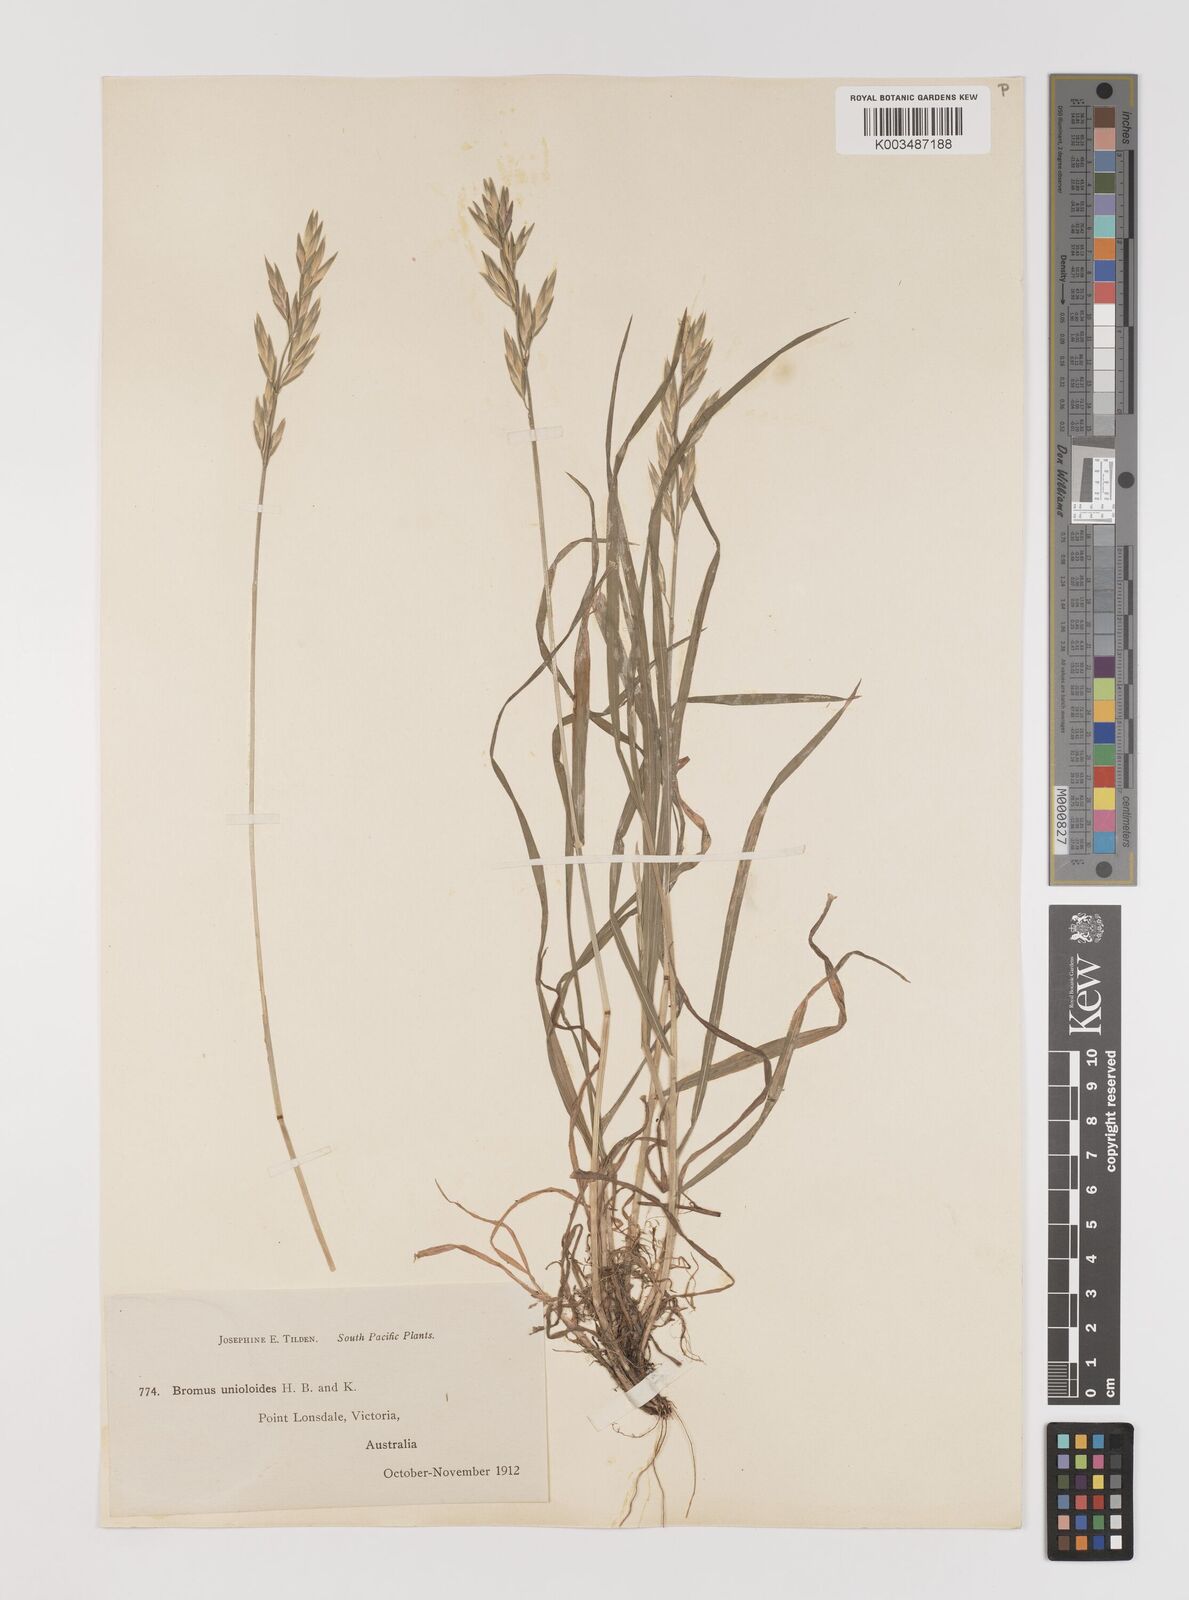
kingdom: Plantae
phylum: Tracheophyta
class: Liliopsida
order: Poales
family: Poaceae
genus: Bromus
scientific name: Bromus catharticus
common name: Rescuegrass
